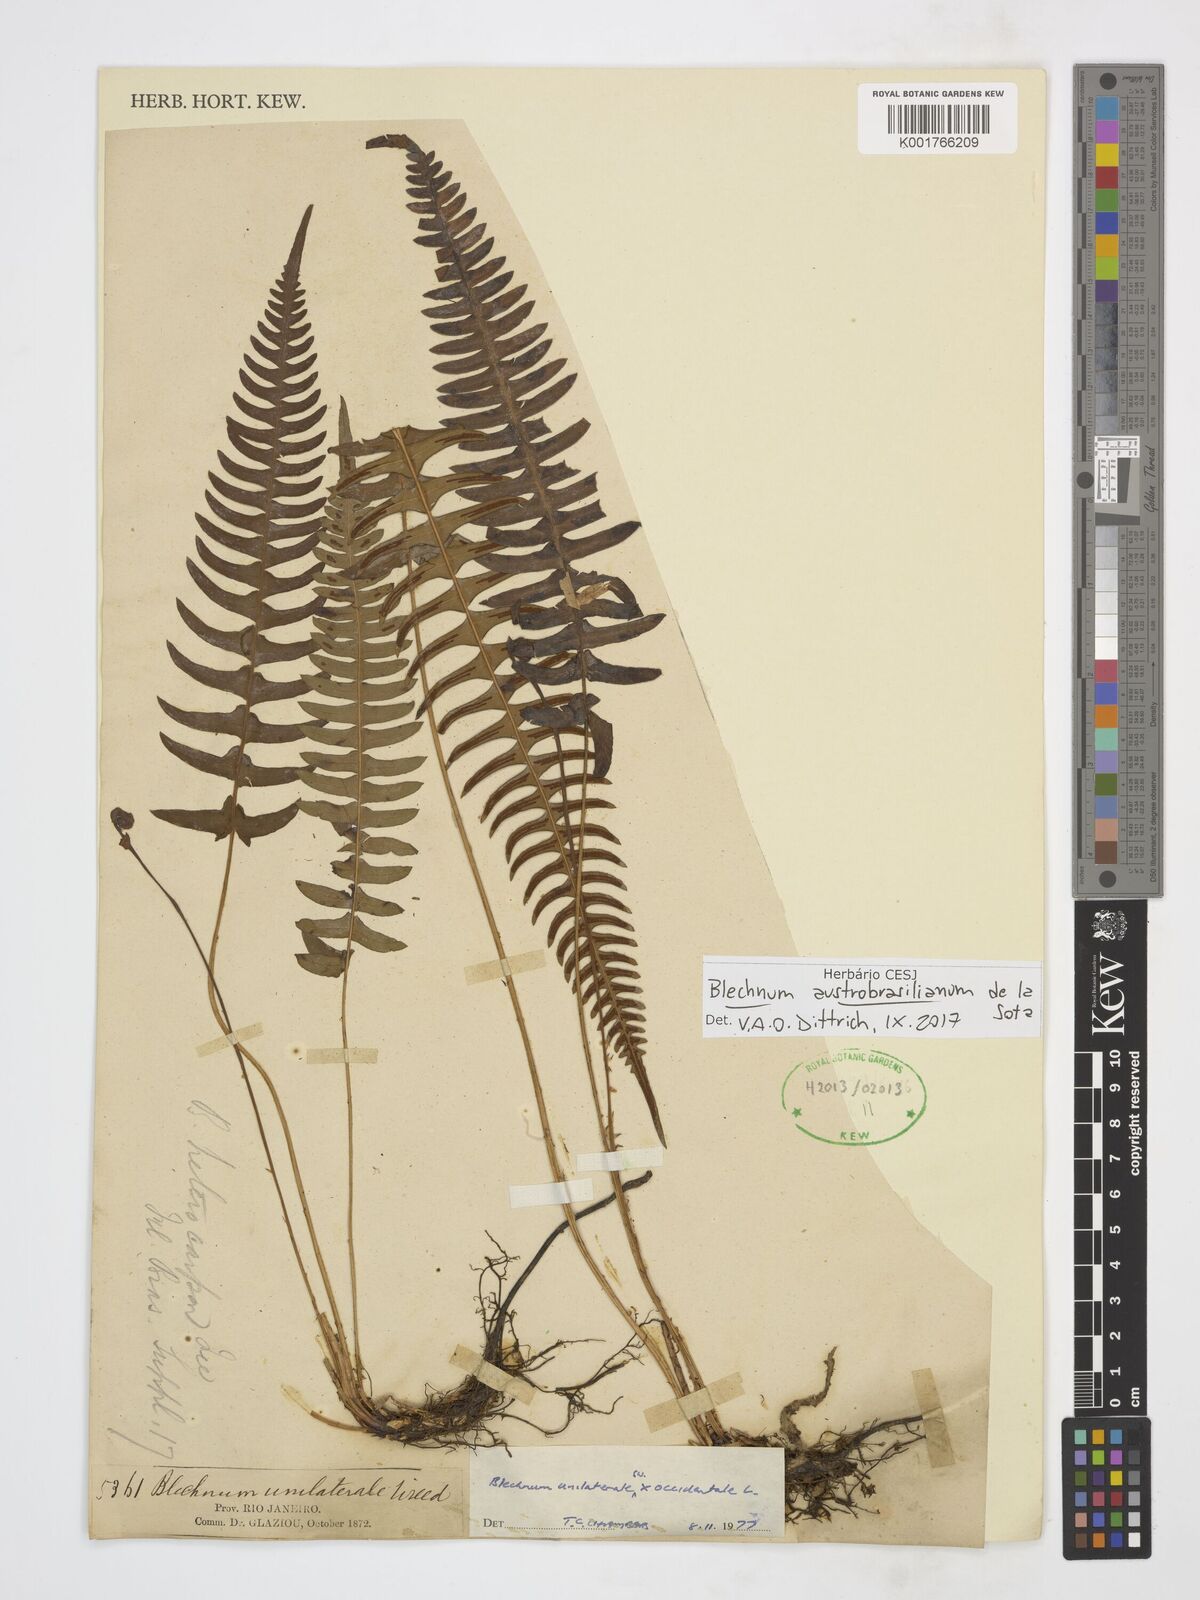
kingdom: Plantae
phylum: Tracheophyta
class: Polypodiopsida
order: Polypodiales
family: Blechnaceae
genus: Blechnum
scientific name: Blechnum austrobrasilianum
